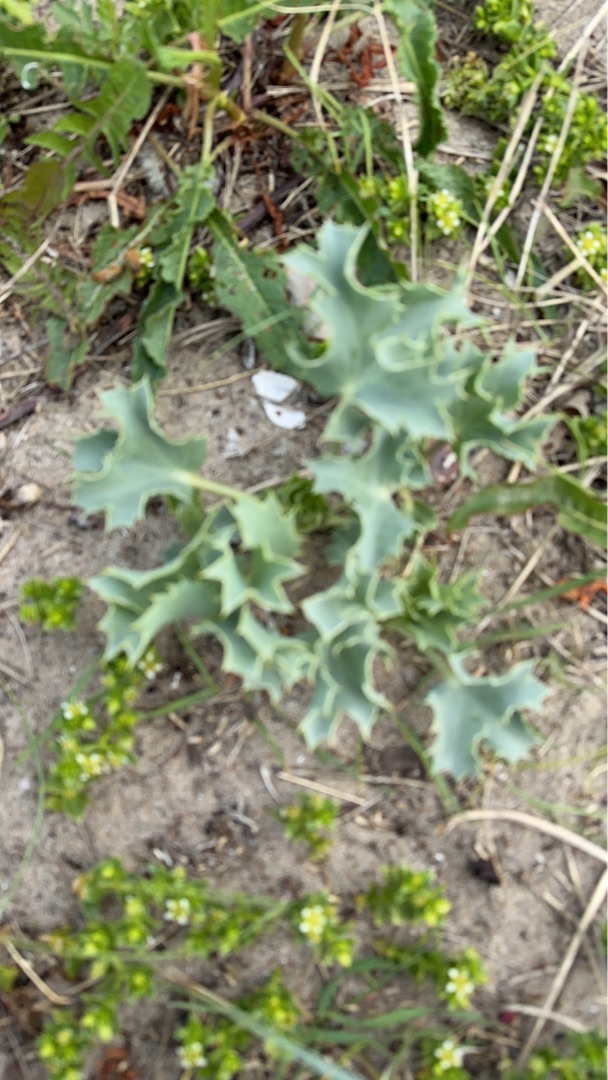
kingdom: Plantae
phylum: Tracheophyta
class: Magnoliopsida
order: Apiales
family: Apiaceae
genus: Eryngium
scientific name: Eryngium maritimum
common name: Strand-mandstro
